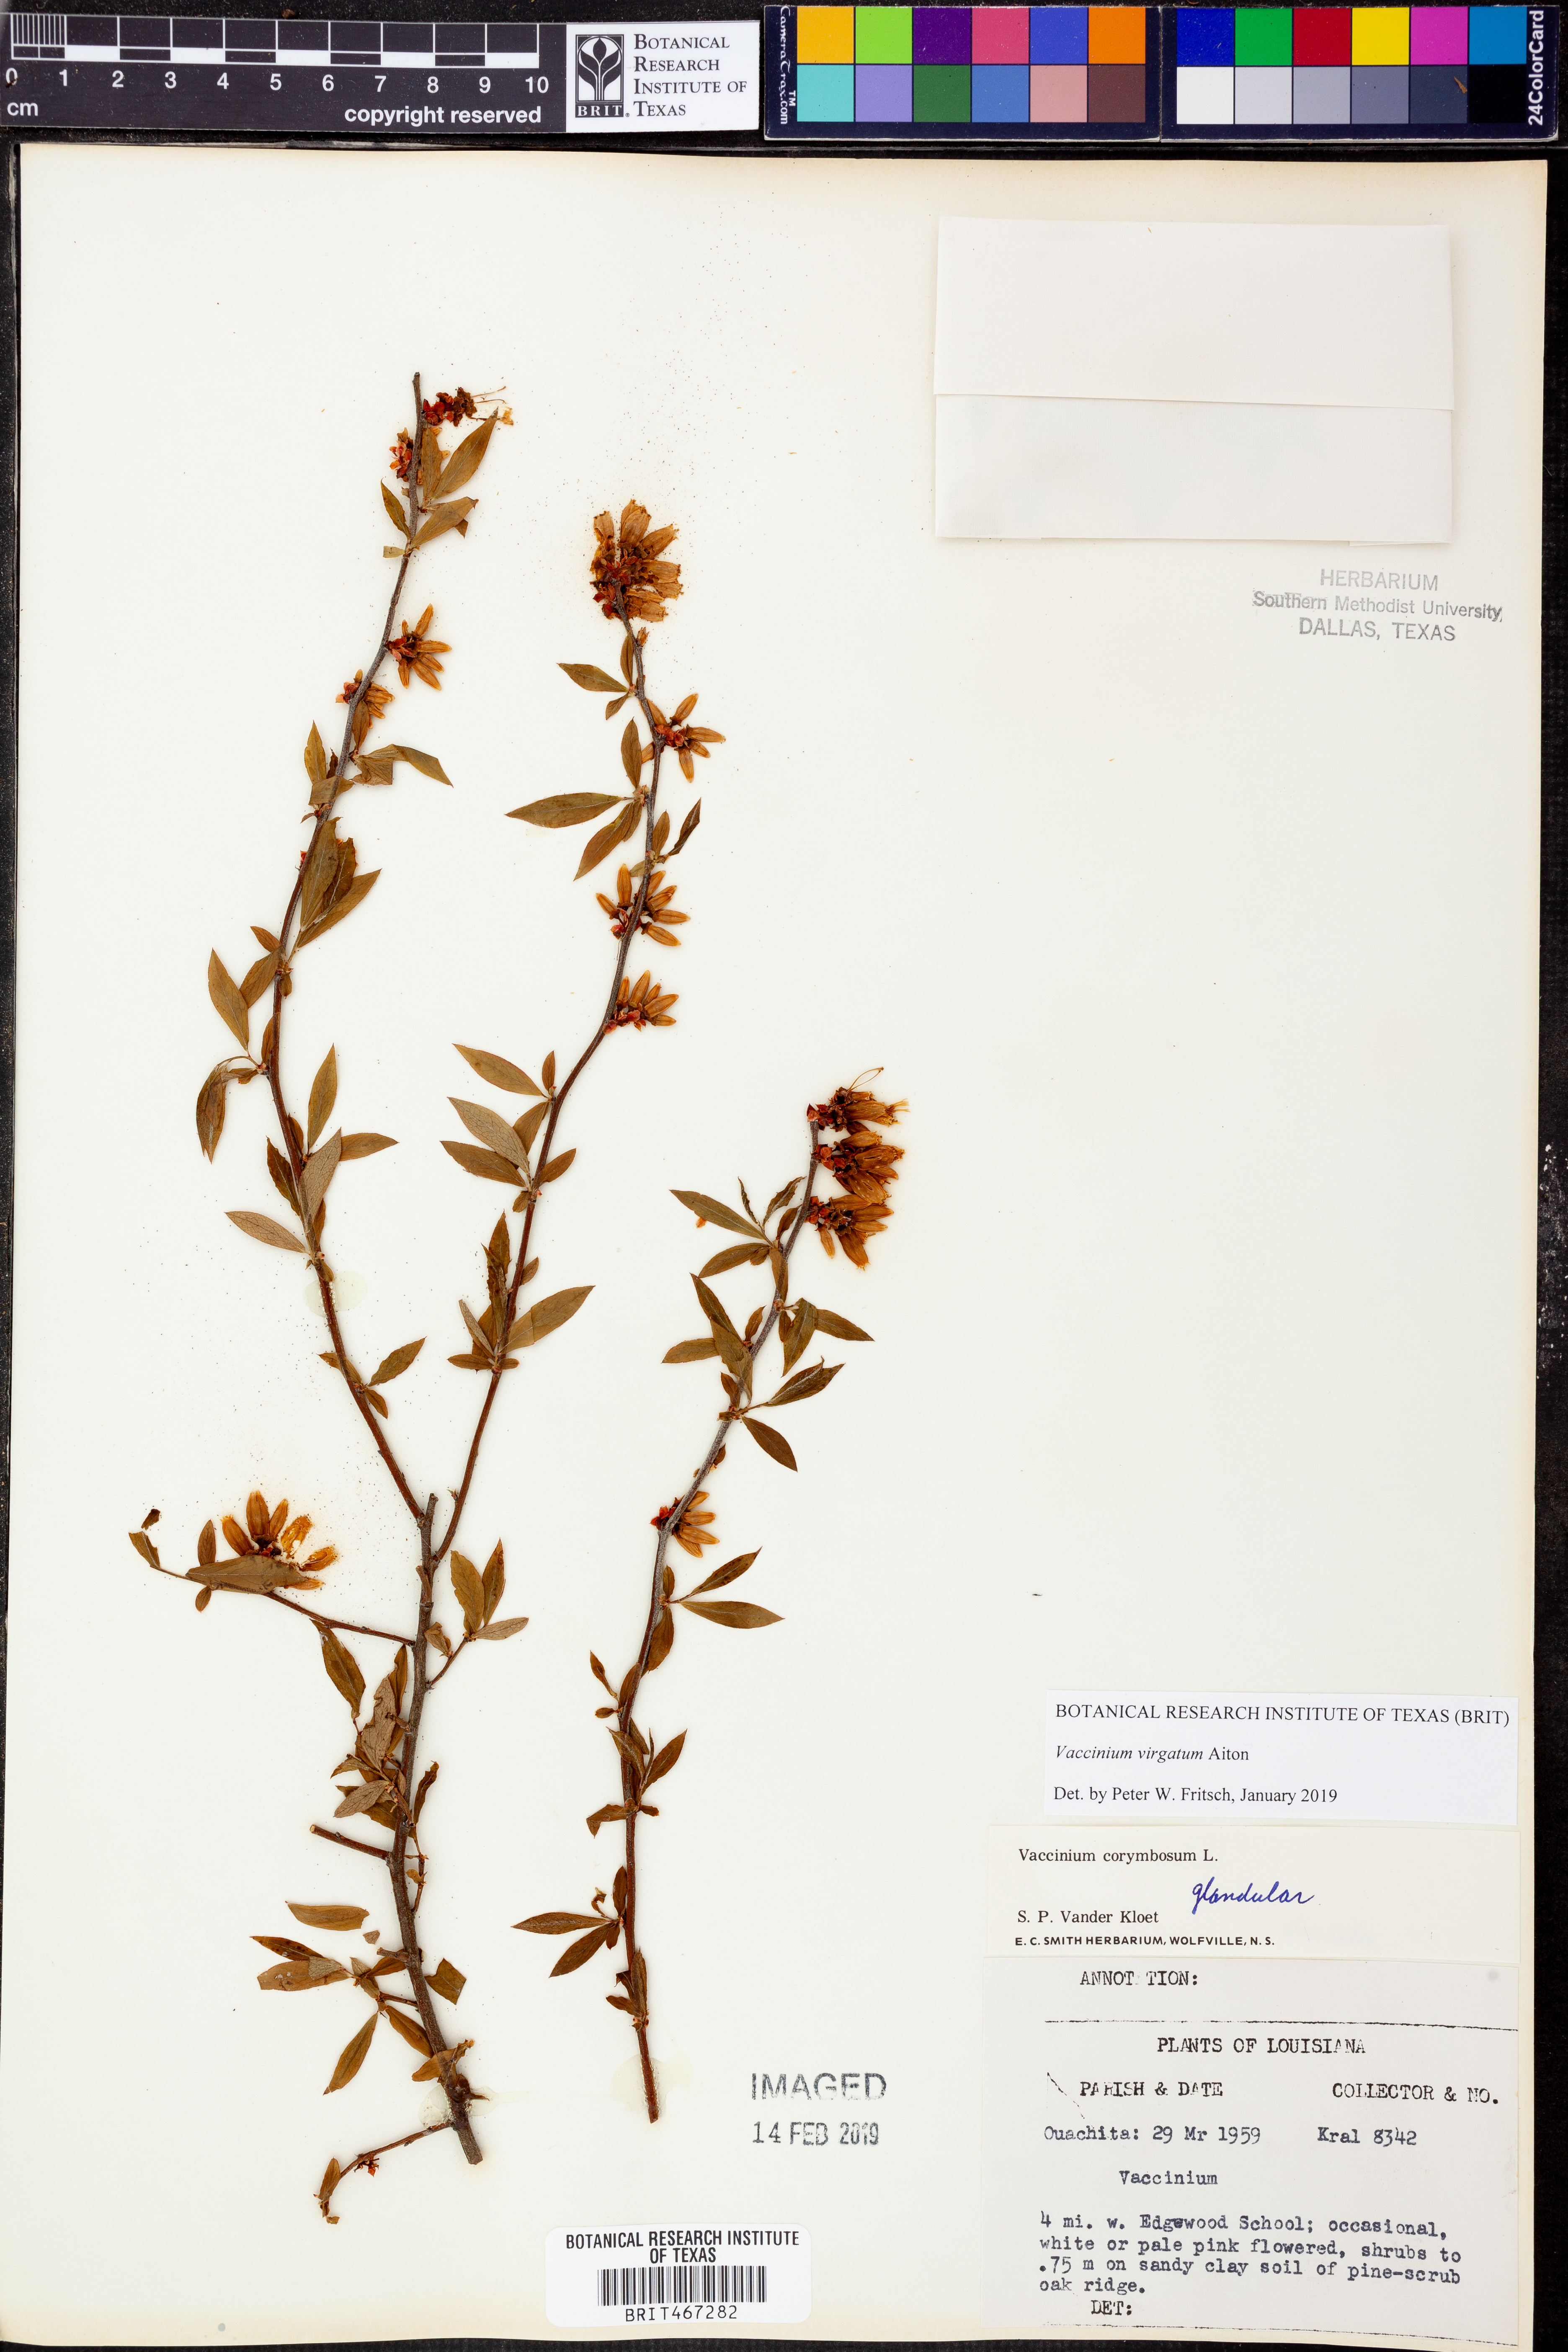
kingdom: Plantae
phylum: Tracheophyta
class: Magnoliopsida
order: Ericales
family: Ericaceae
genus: Vaccinium
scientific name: Vaccinium corymbosum
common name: Blueberry
